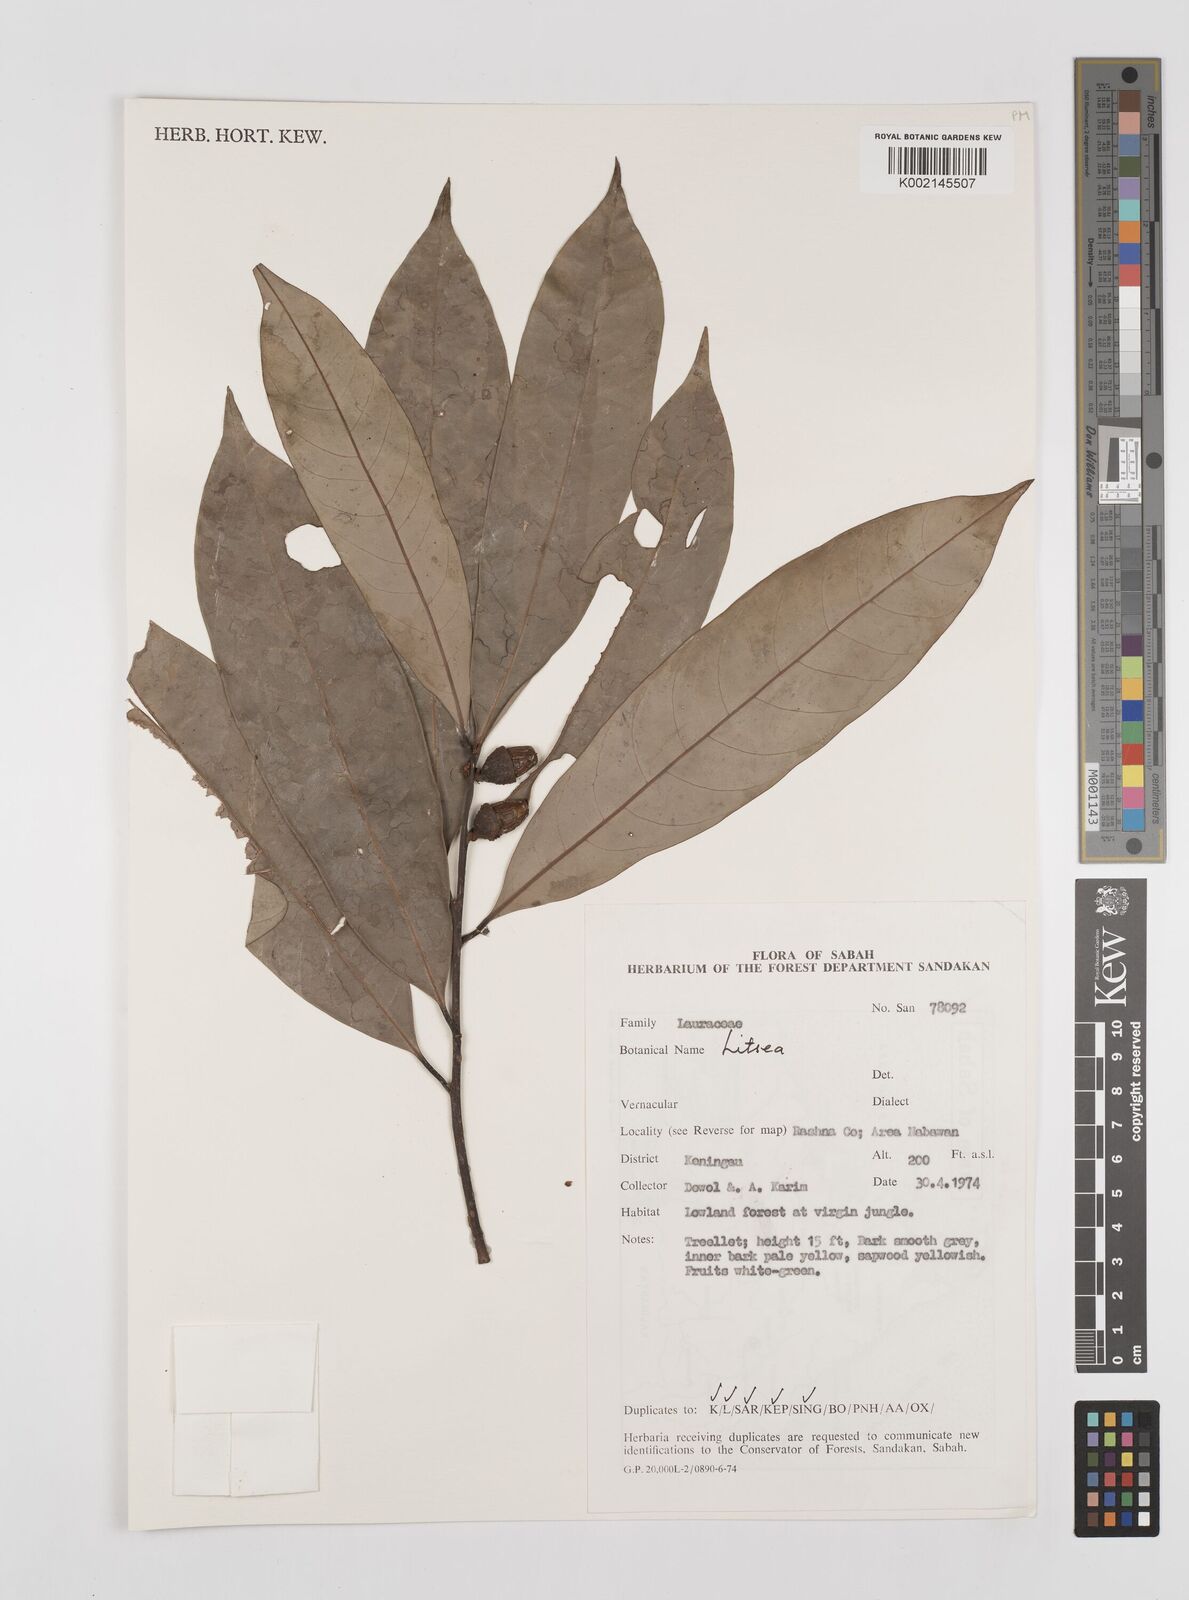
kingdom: Plantae
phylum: Tracheophyta
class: Magnoliopsida
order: Laurales
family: Lauraceae
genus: Litsea
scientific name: Litsea
